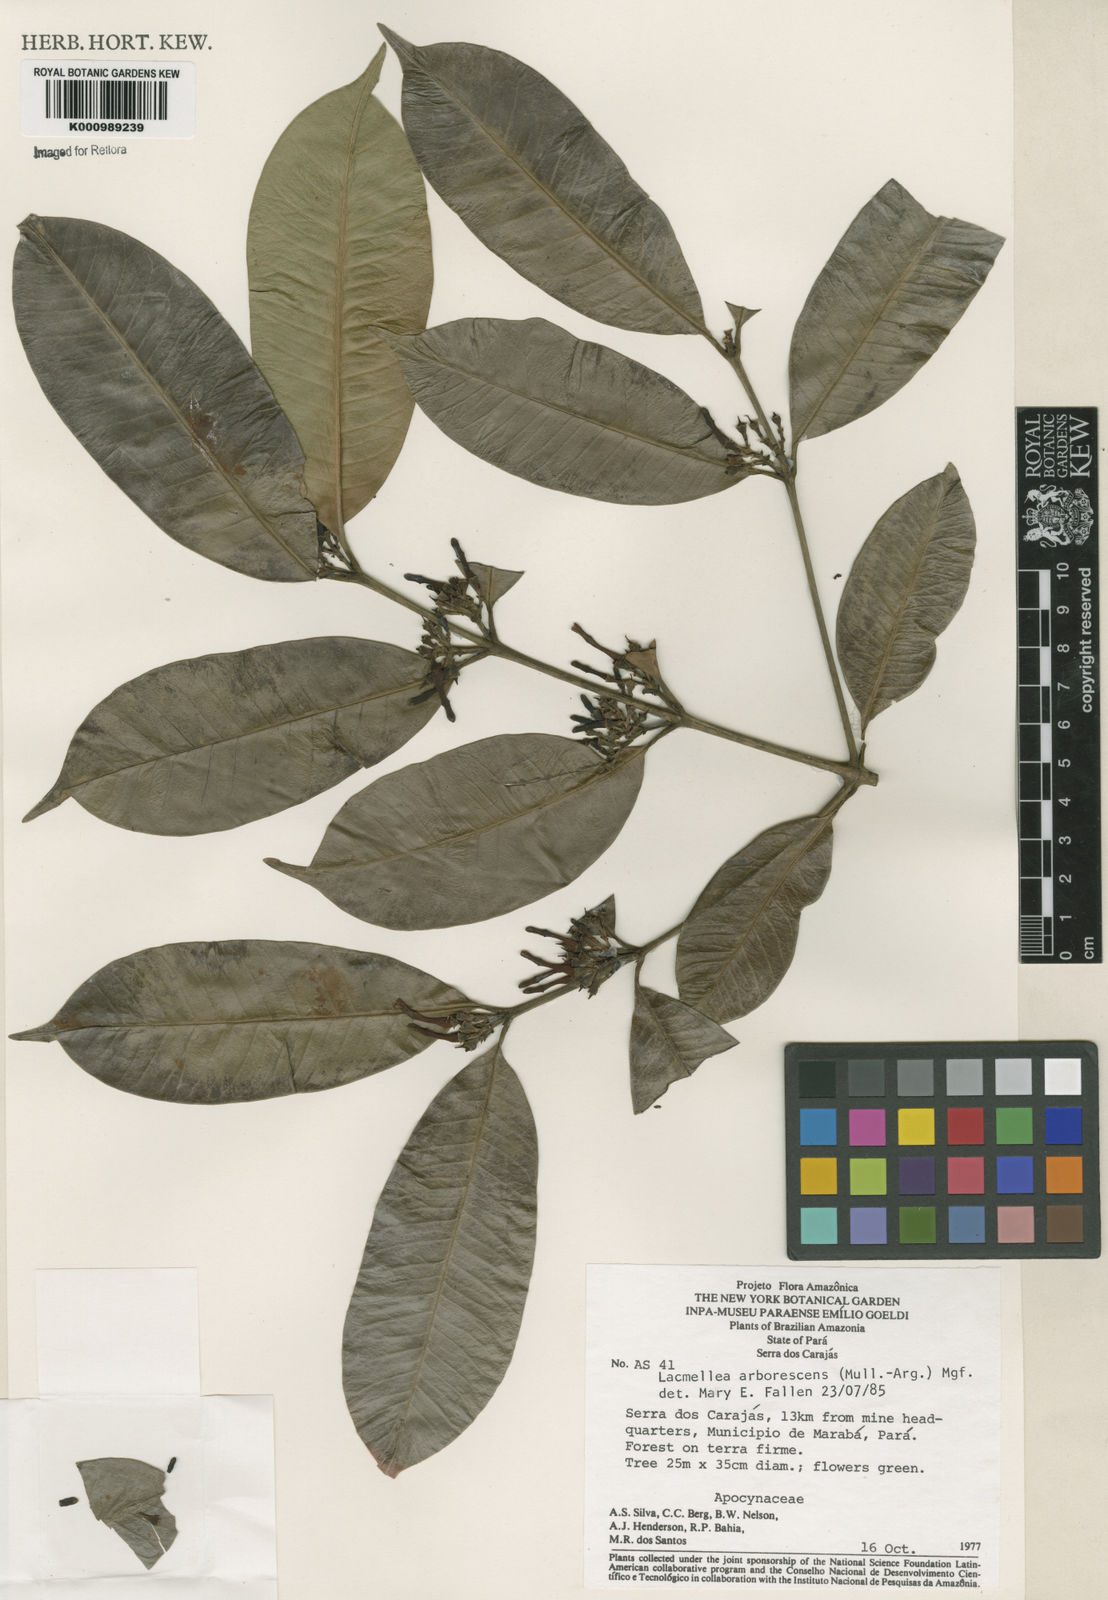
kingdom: Plantae
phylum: Tracheophyta
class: Magnoliopsida
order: Gentianales
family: Apocynaceae
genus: Lacmellea
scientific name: Lacmellea
